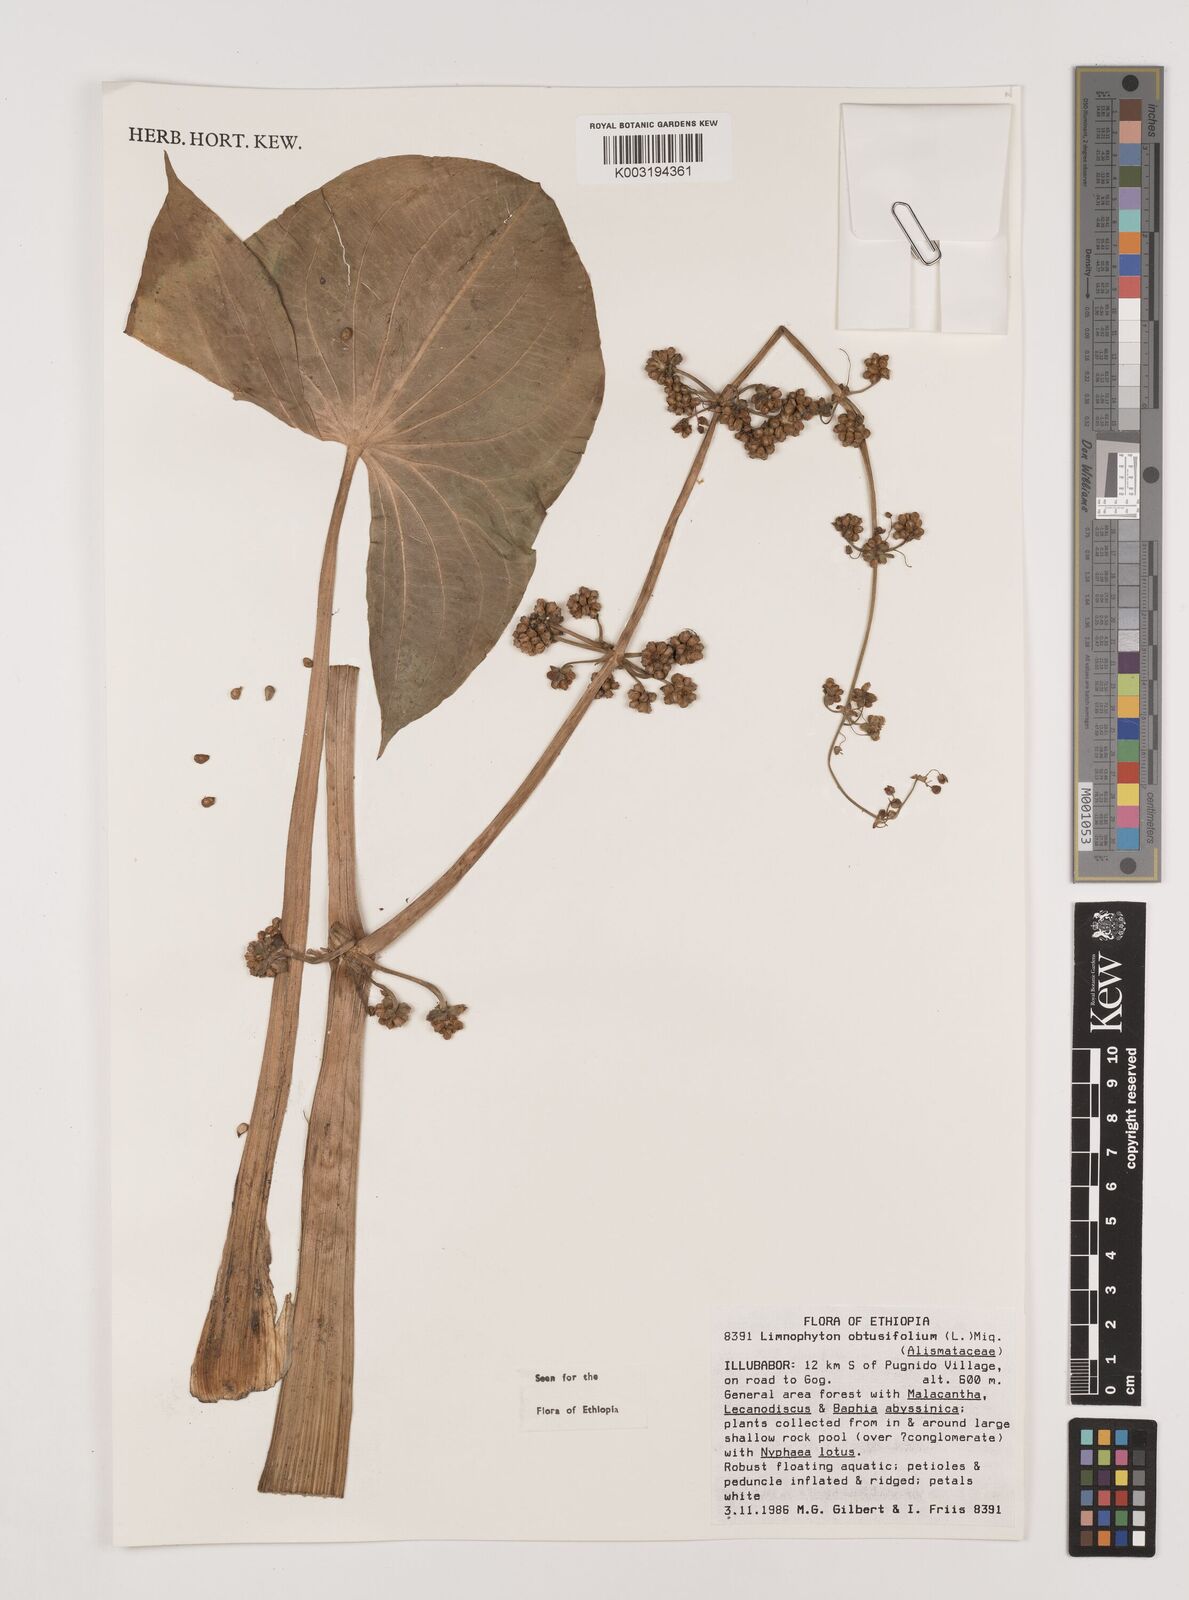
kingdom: Plantae
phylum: Tracheophyta
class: Liliopsida
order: Alismatales
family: Alismataceae
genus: Limnophyton
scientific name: Limnophyton obtusifolium
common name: Arrow head
